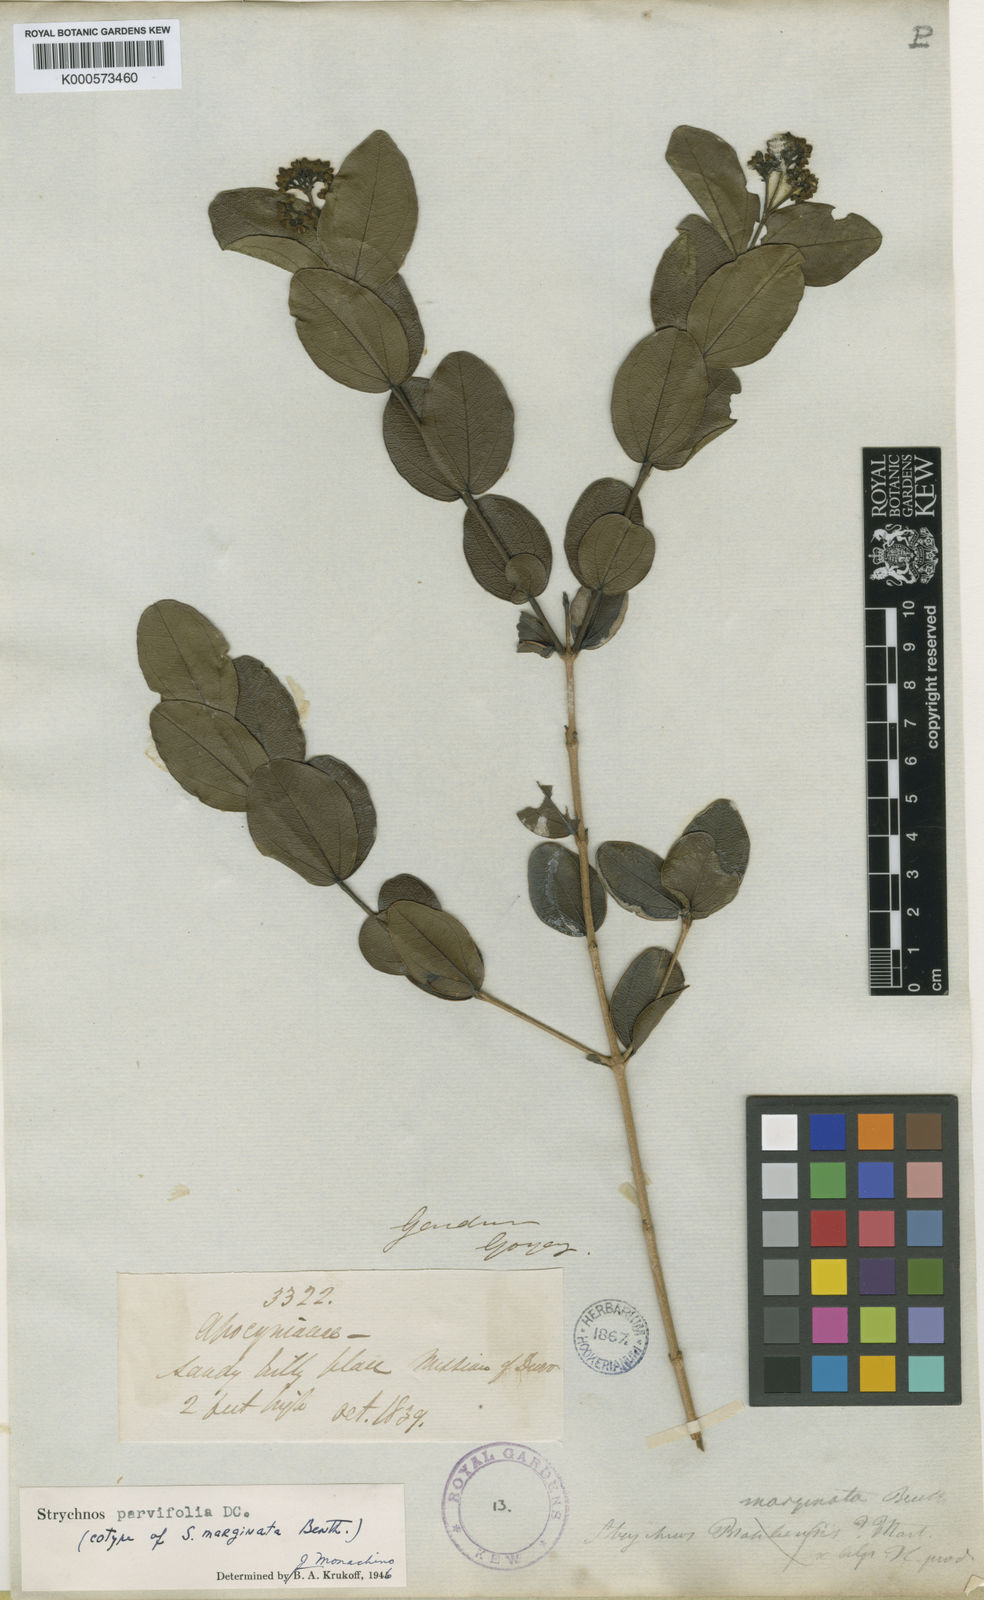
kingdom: Plantae
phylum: Tracheophyta
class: Magnoliopsida
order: Gentianales
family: Loganiaceae
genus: Strychnos
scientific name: Strychnos parvifolia
